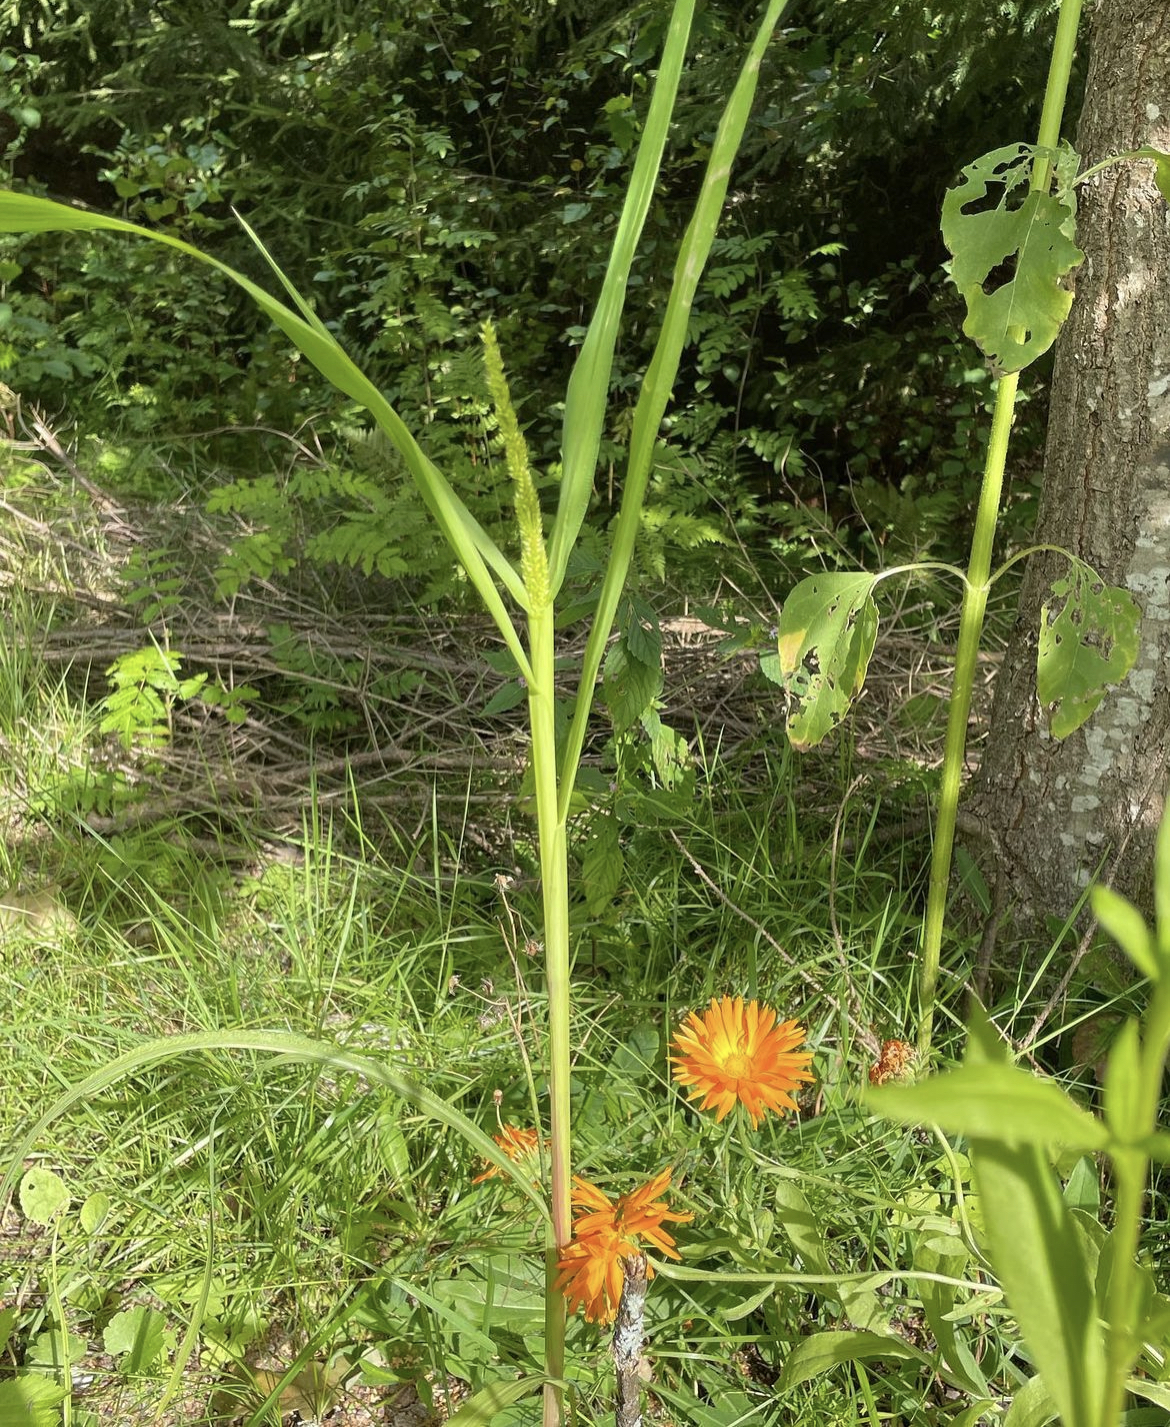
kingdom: Plantae
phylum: Tracheophyta
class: Liliopsida
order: Poales
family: Poaceae
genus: Echinochloa
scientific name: Echinochloa crus-galli
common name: Cockspur
